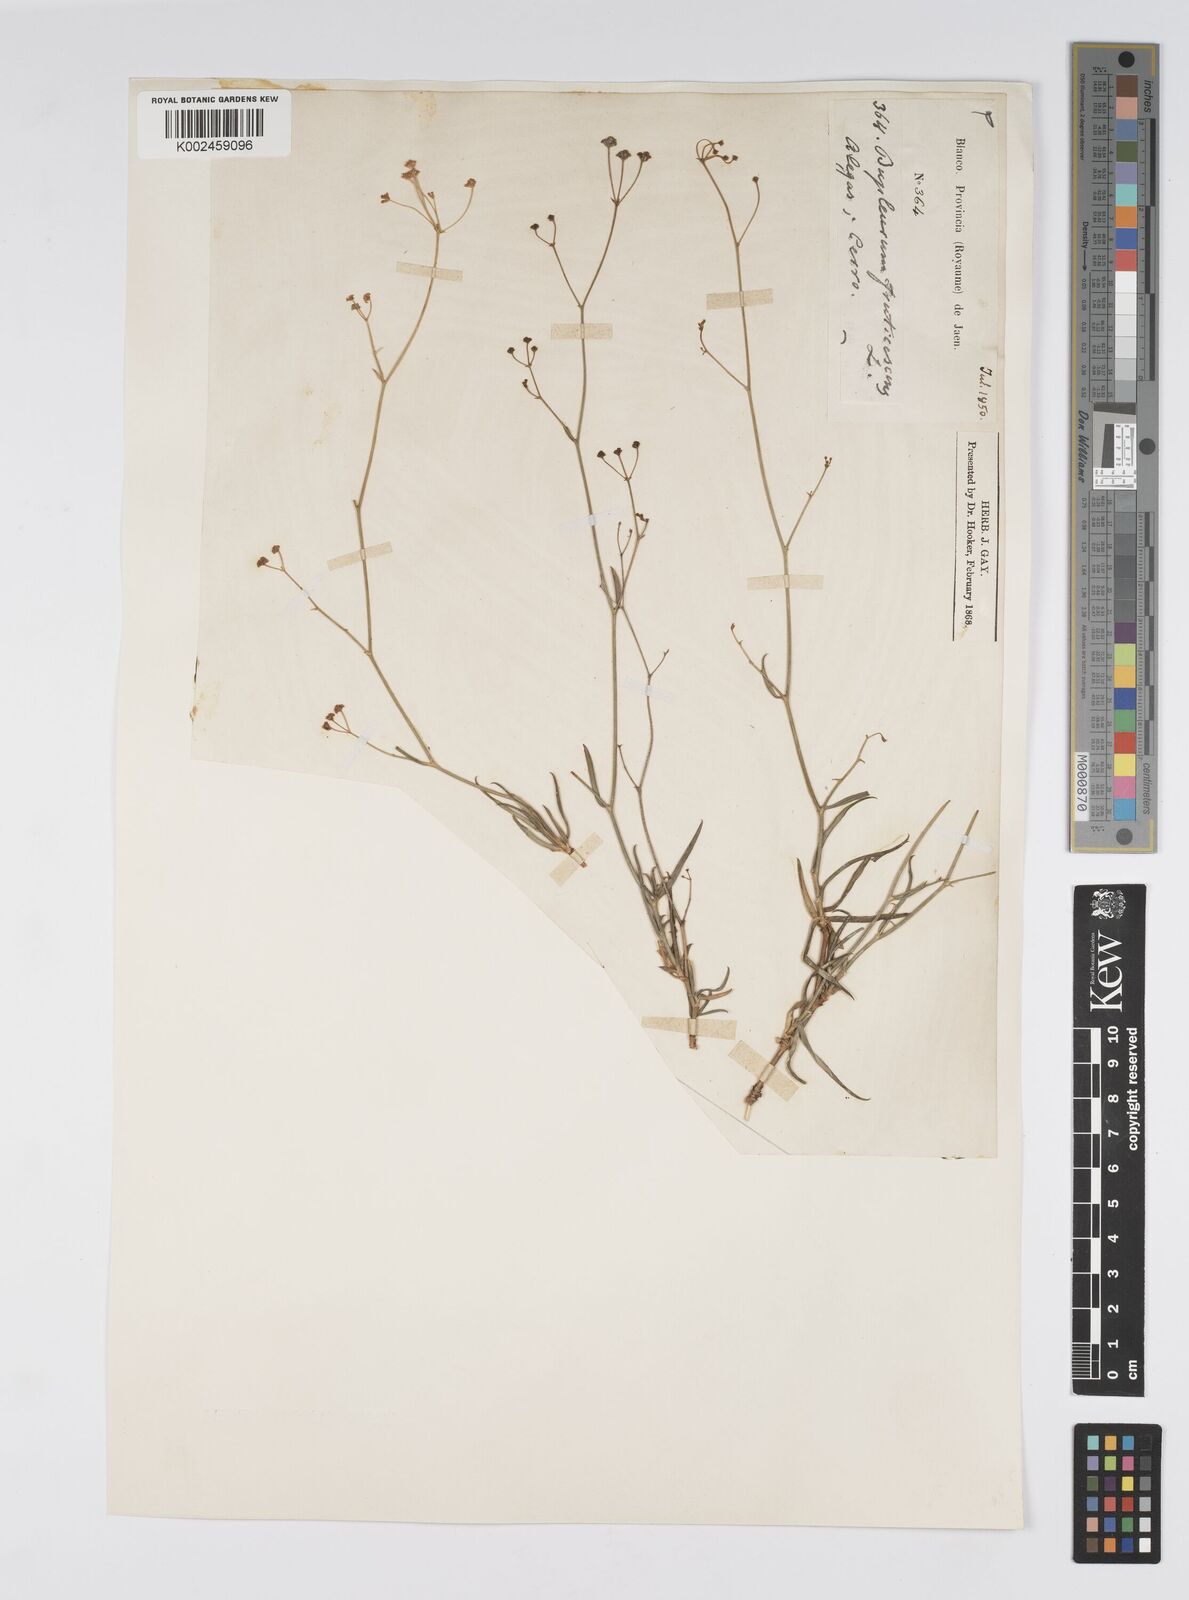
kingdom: Plantae
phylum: Tracheophyta
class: Magnoliopsida
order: Apiales
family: Apiaceae
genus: Bupleurum
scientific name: Bupleurum fruticescens
